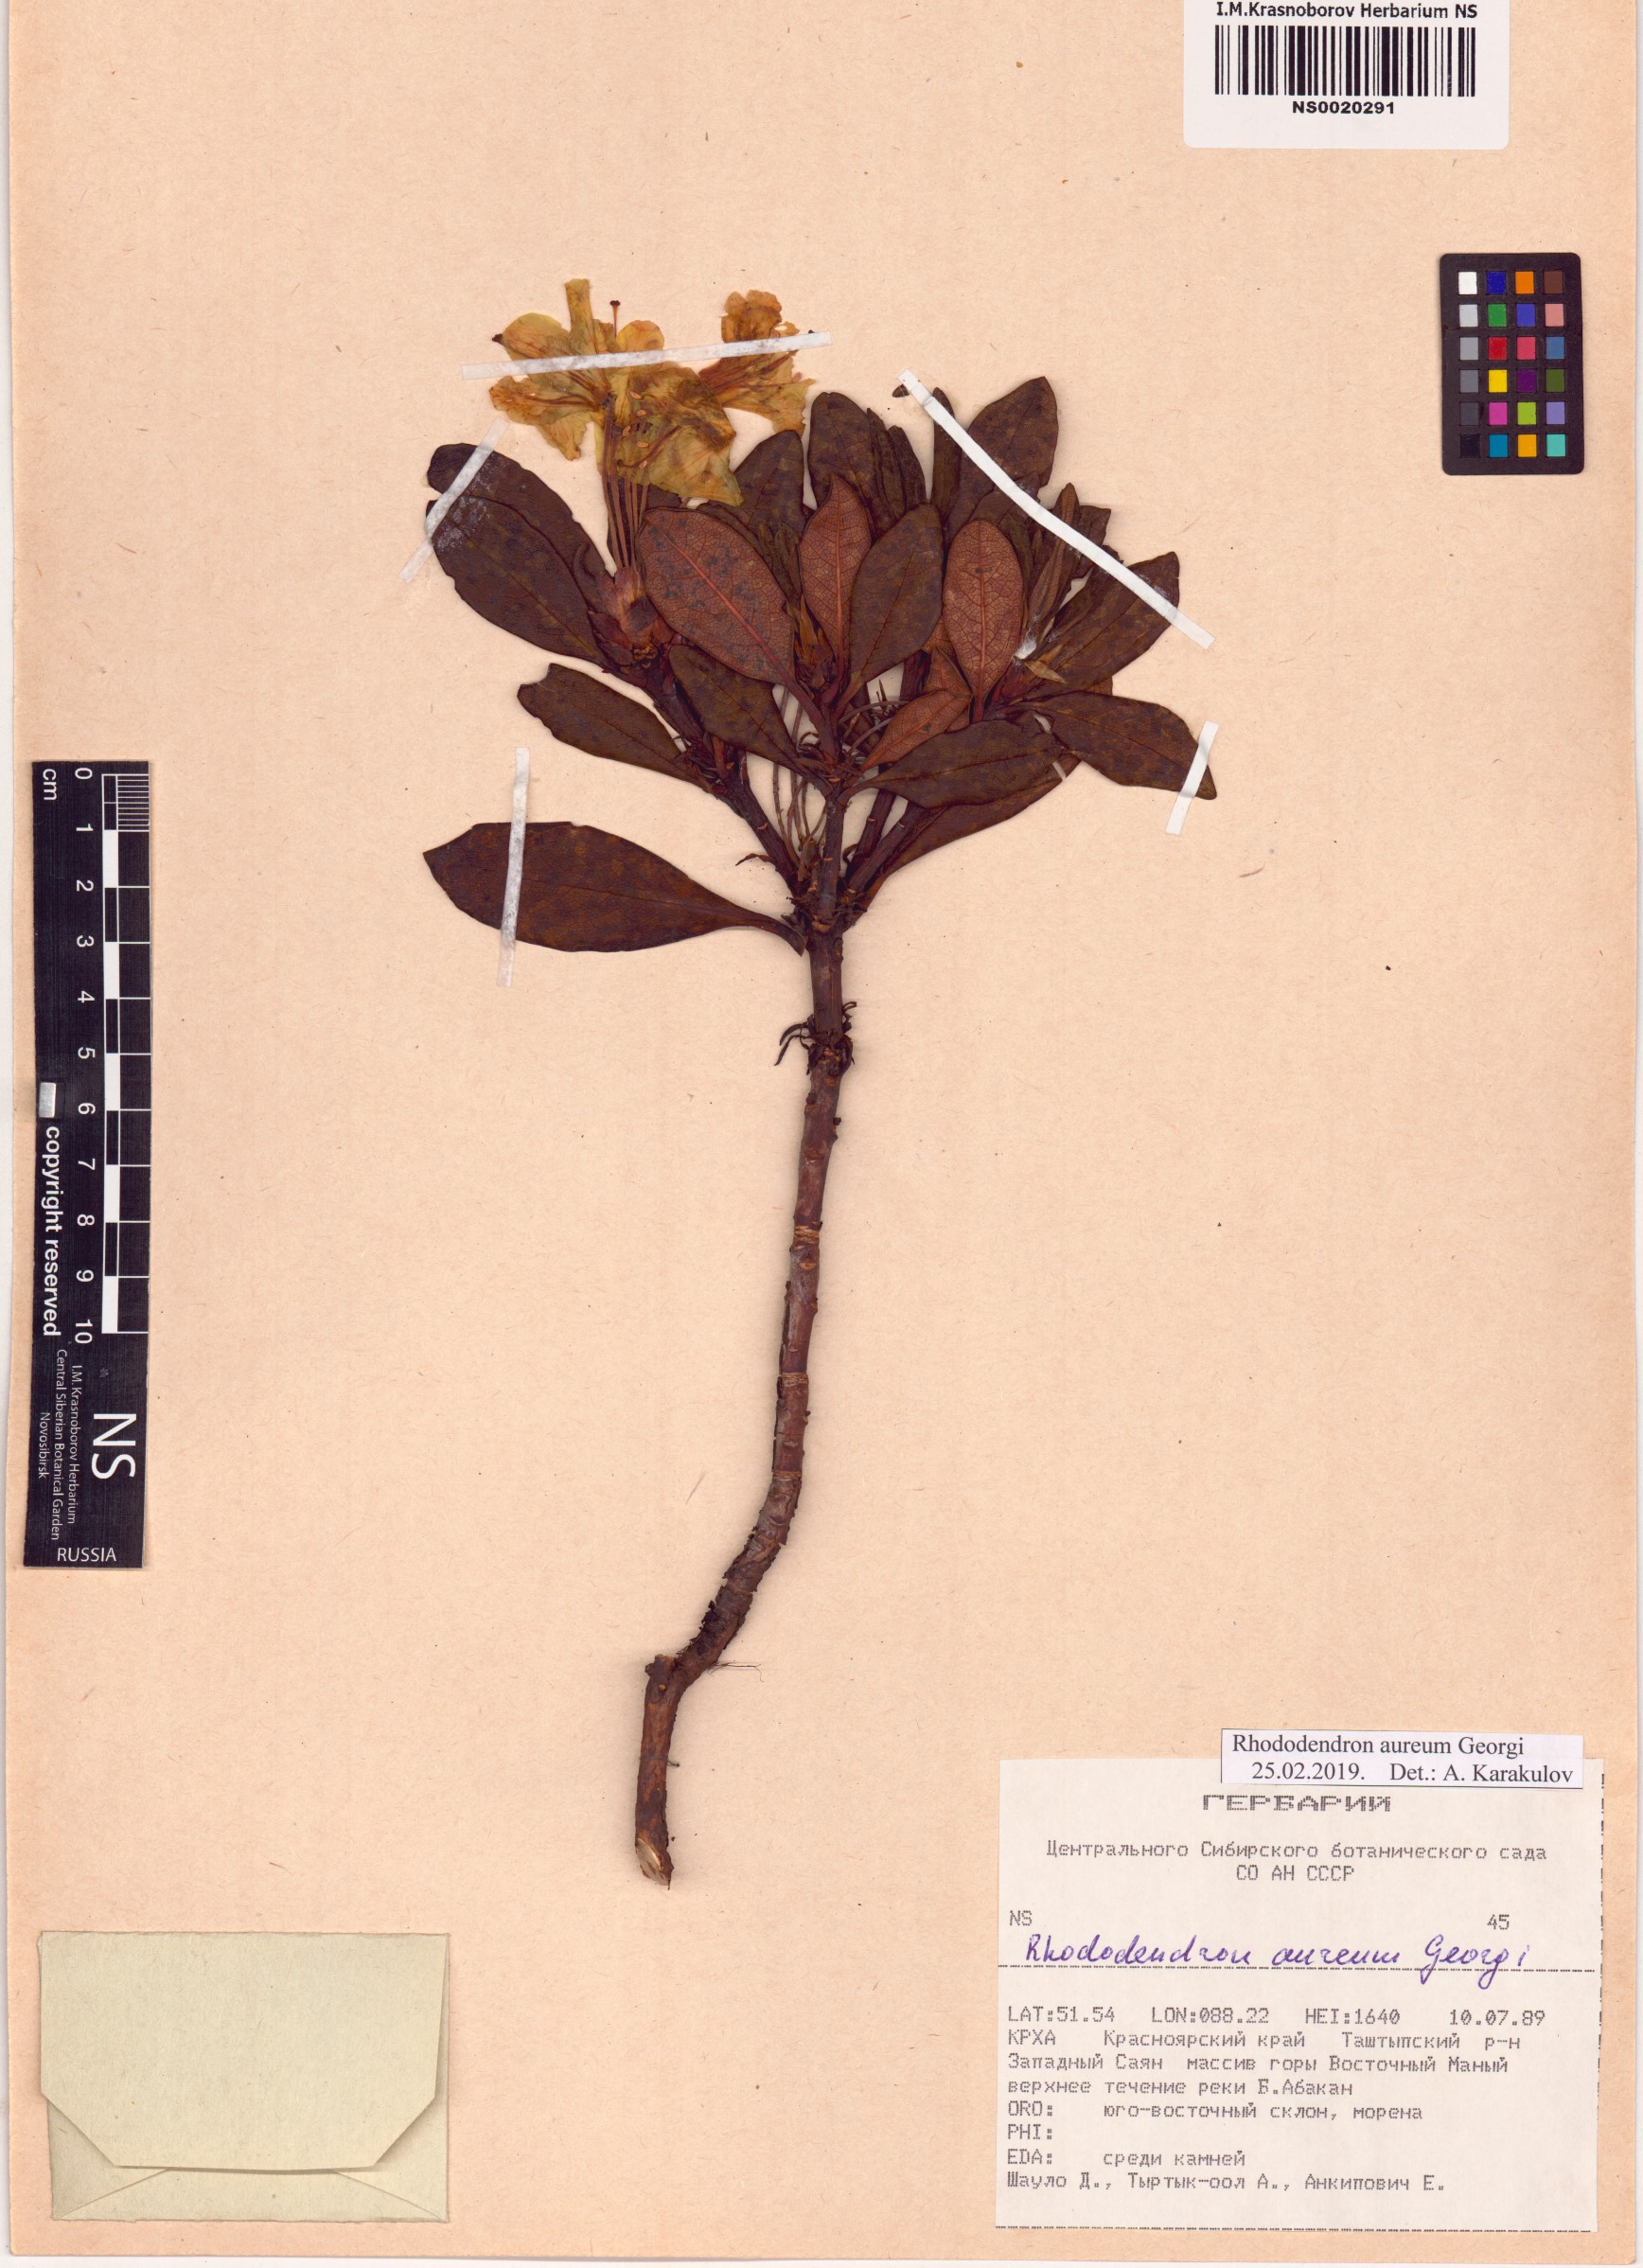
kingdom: Plantae
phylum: Tracheophyta
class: Magnoliopsida
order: Ericales
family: Ericaceae
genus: Rhododendron
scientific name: Rhododendron aureum
